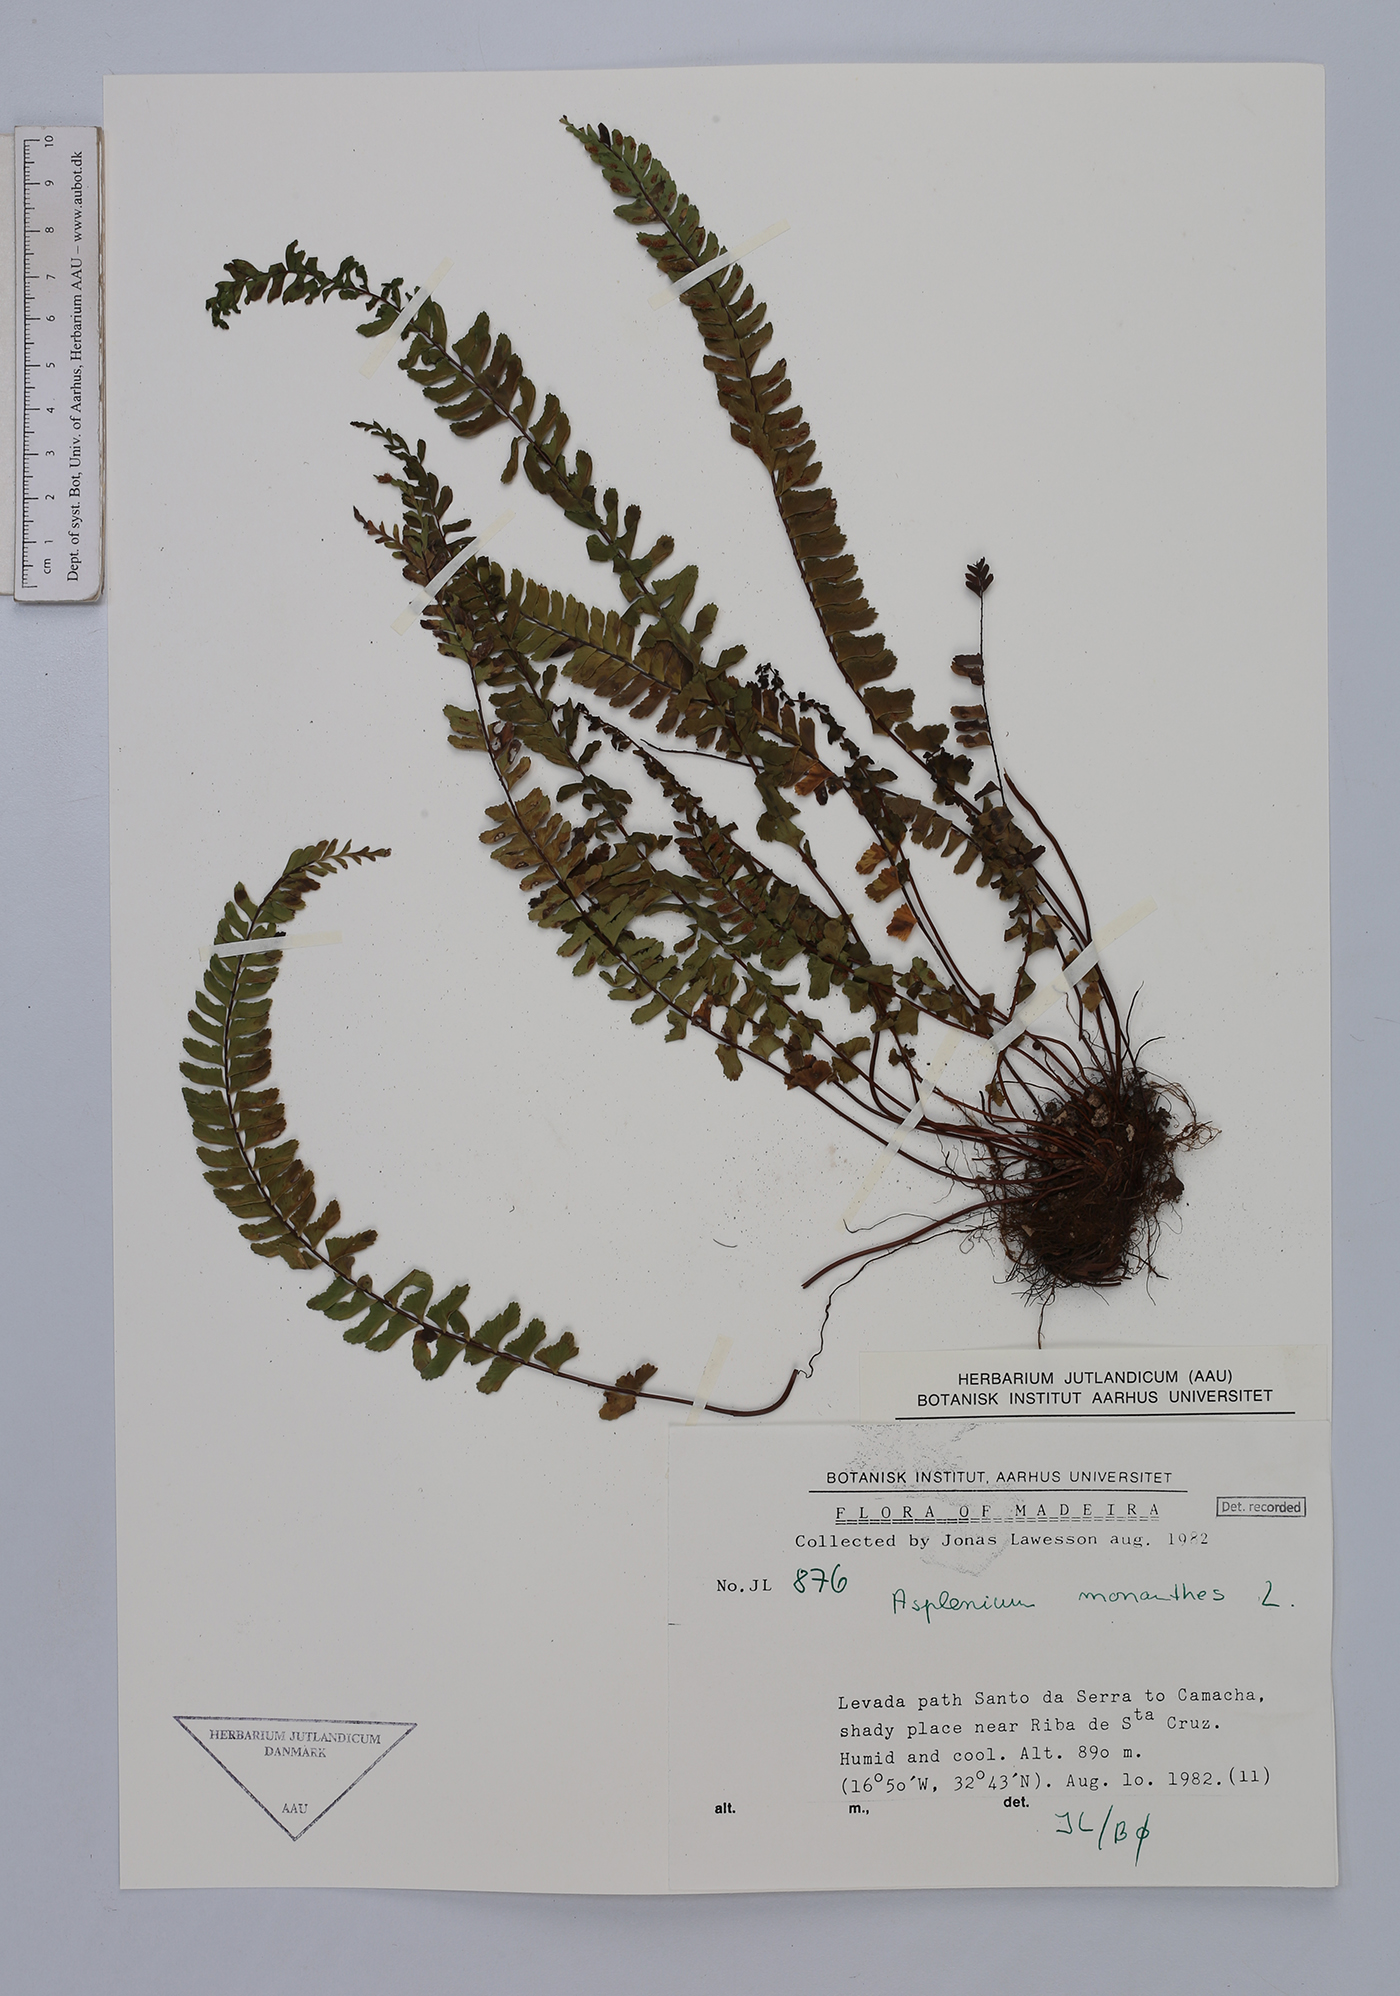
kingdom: Plantae
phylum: Tracheophyta
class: Polypodiopsida
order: Polypodiales
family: Aspleniaceae
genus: Asplenium
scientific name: Asplenium monanthes
